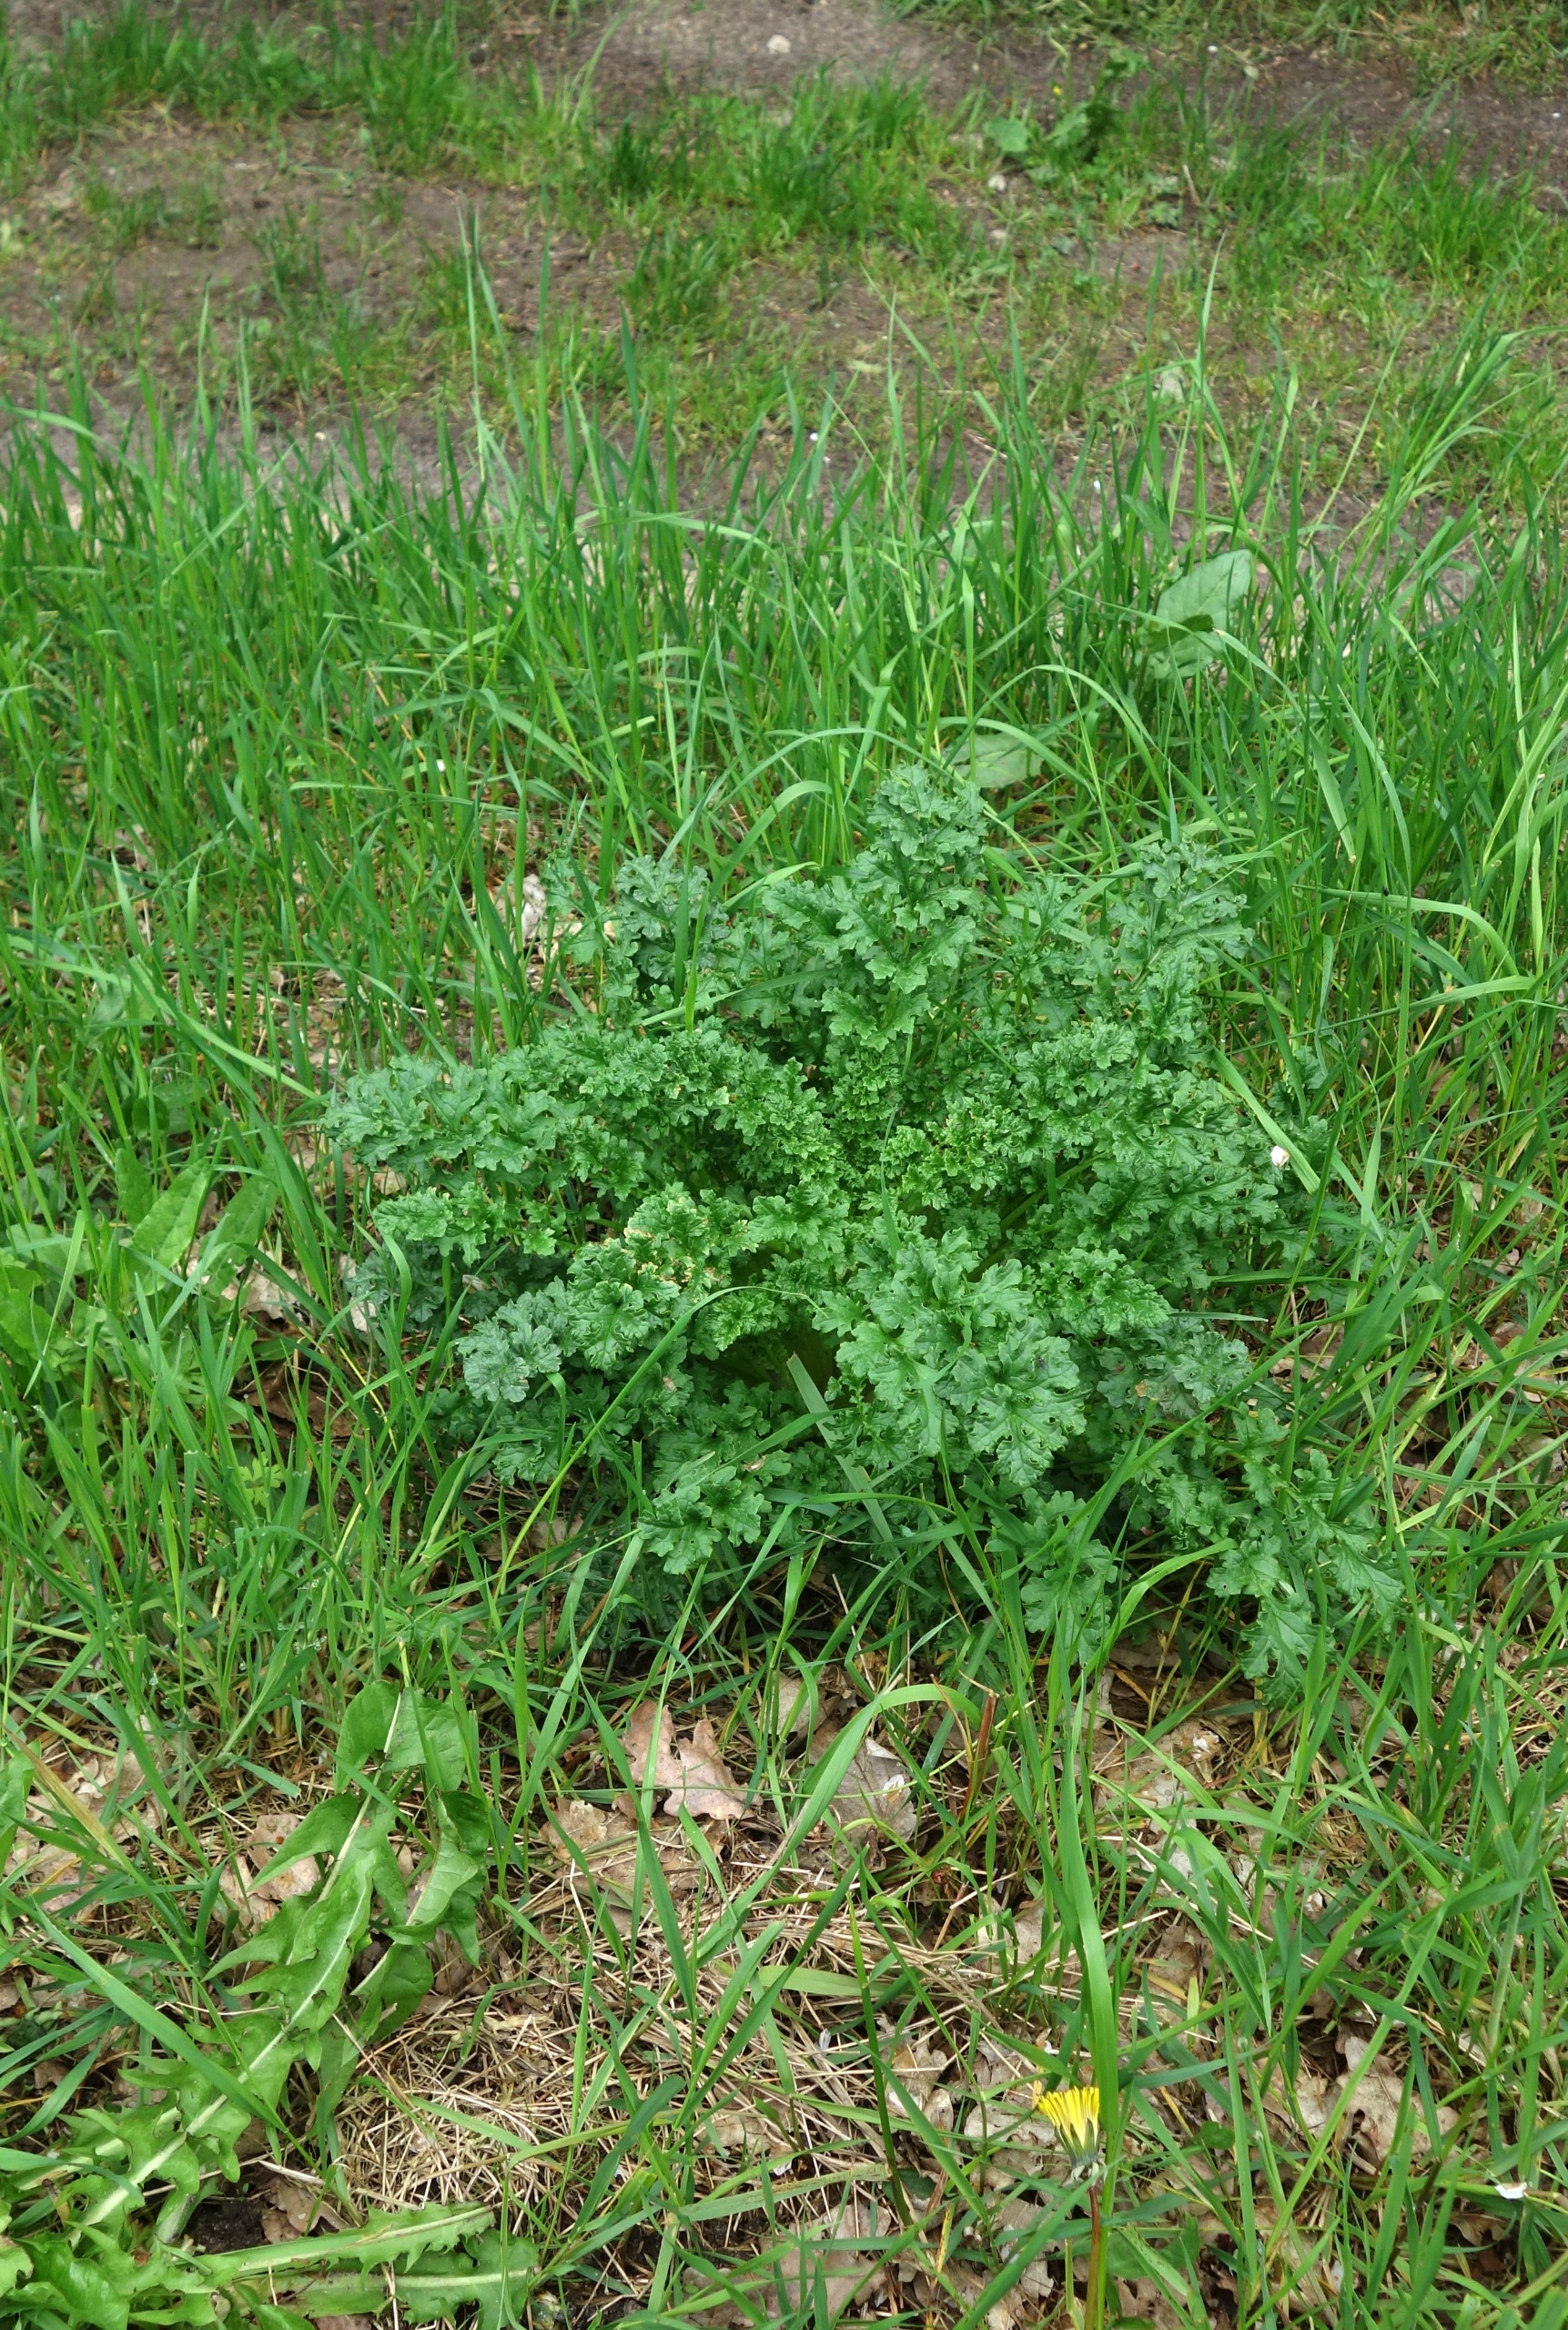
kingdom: Plantae
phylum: Tracheophyta
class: Magnoliopsida
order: Asterales
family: Asteraceae
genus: Jacobaea
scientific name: Jacobaea vulgaris
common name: Eng-brandbæger
